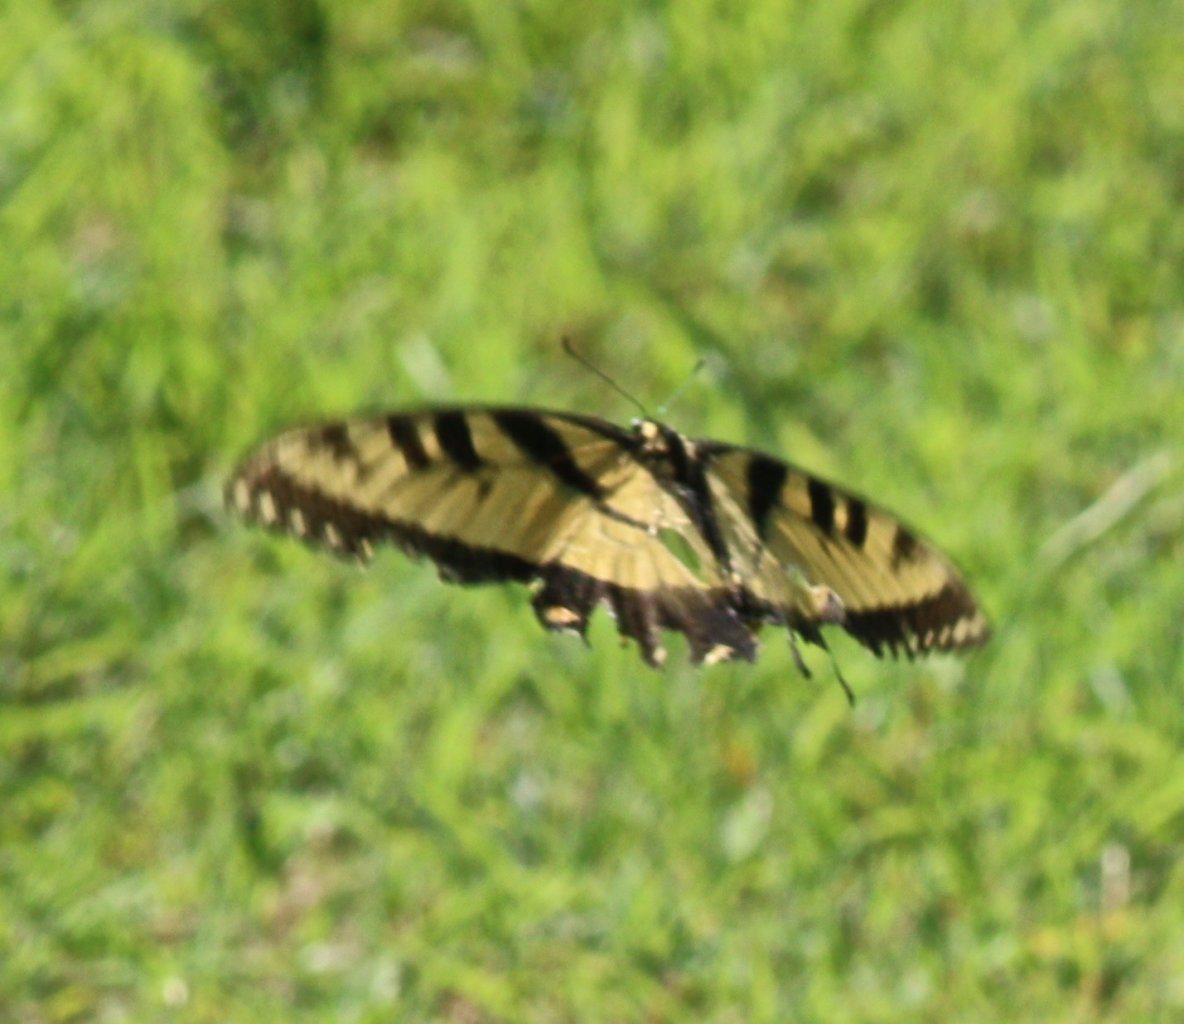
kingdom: Animalia
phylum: Arthropoda
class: Insecta
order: Lepidoptera
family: Papilionidae
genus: Pterourus
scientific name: Pterourus glaucus
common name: Eastern Tiger Swallowtail
